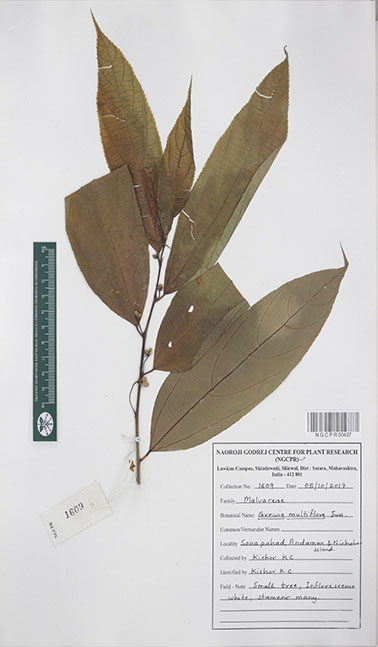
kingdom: Plantae
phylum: Tracheophyta
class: Magnoliopsida
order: Malvales
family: Malvaceae
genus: Grewia
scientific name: Grewia multiflora
